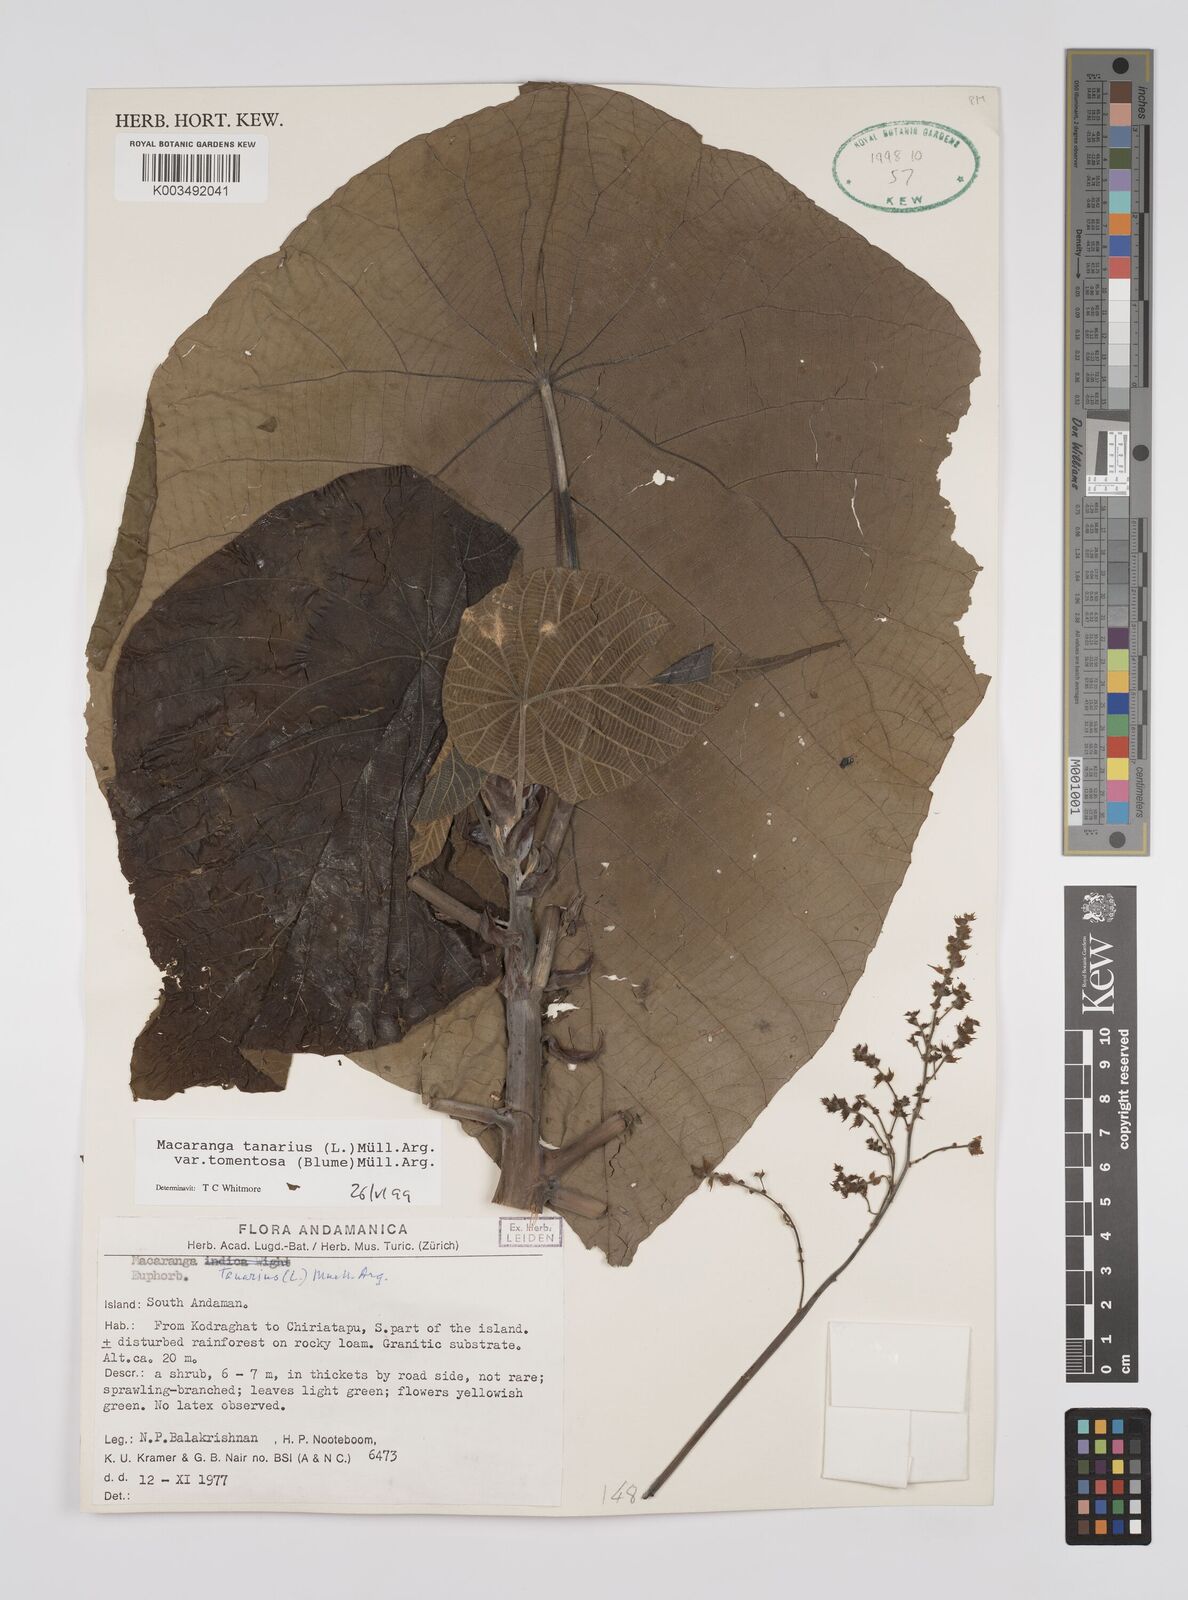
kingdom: Plantae
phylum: Tracheophyta
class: Magnoliopsida
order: Malpighiales
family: Euphorbiaceae
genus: Macaranga
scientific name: Macaranga tanarius
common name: Parasol leaf tree
